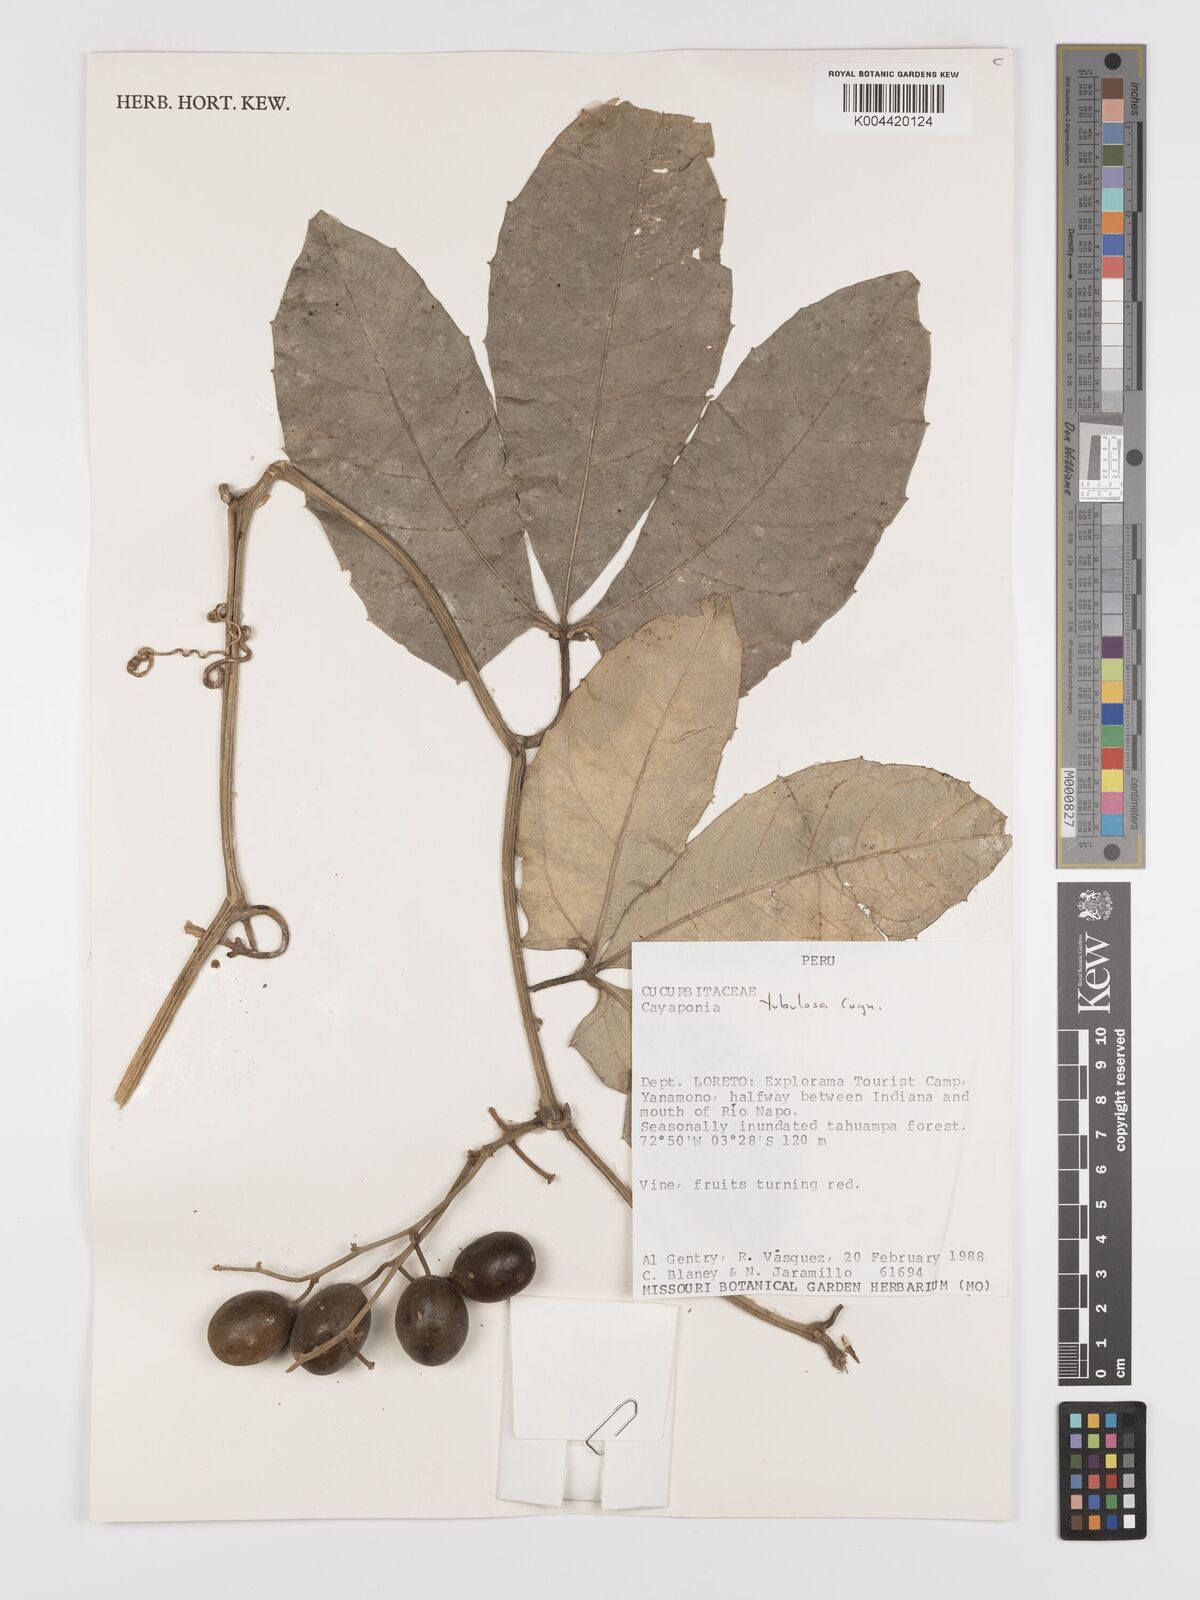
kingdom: Plantae
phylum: Tracheophyta
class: Magnoliopsida
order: Cucurbitales
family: Cucurbitaceae
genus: Cayaponia
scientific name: Cayaponia tubulosa
